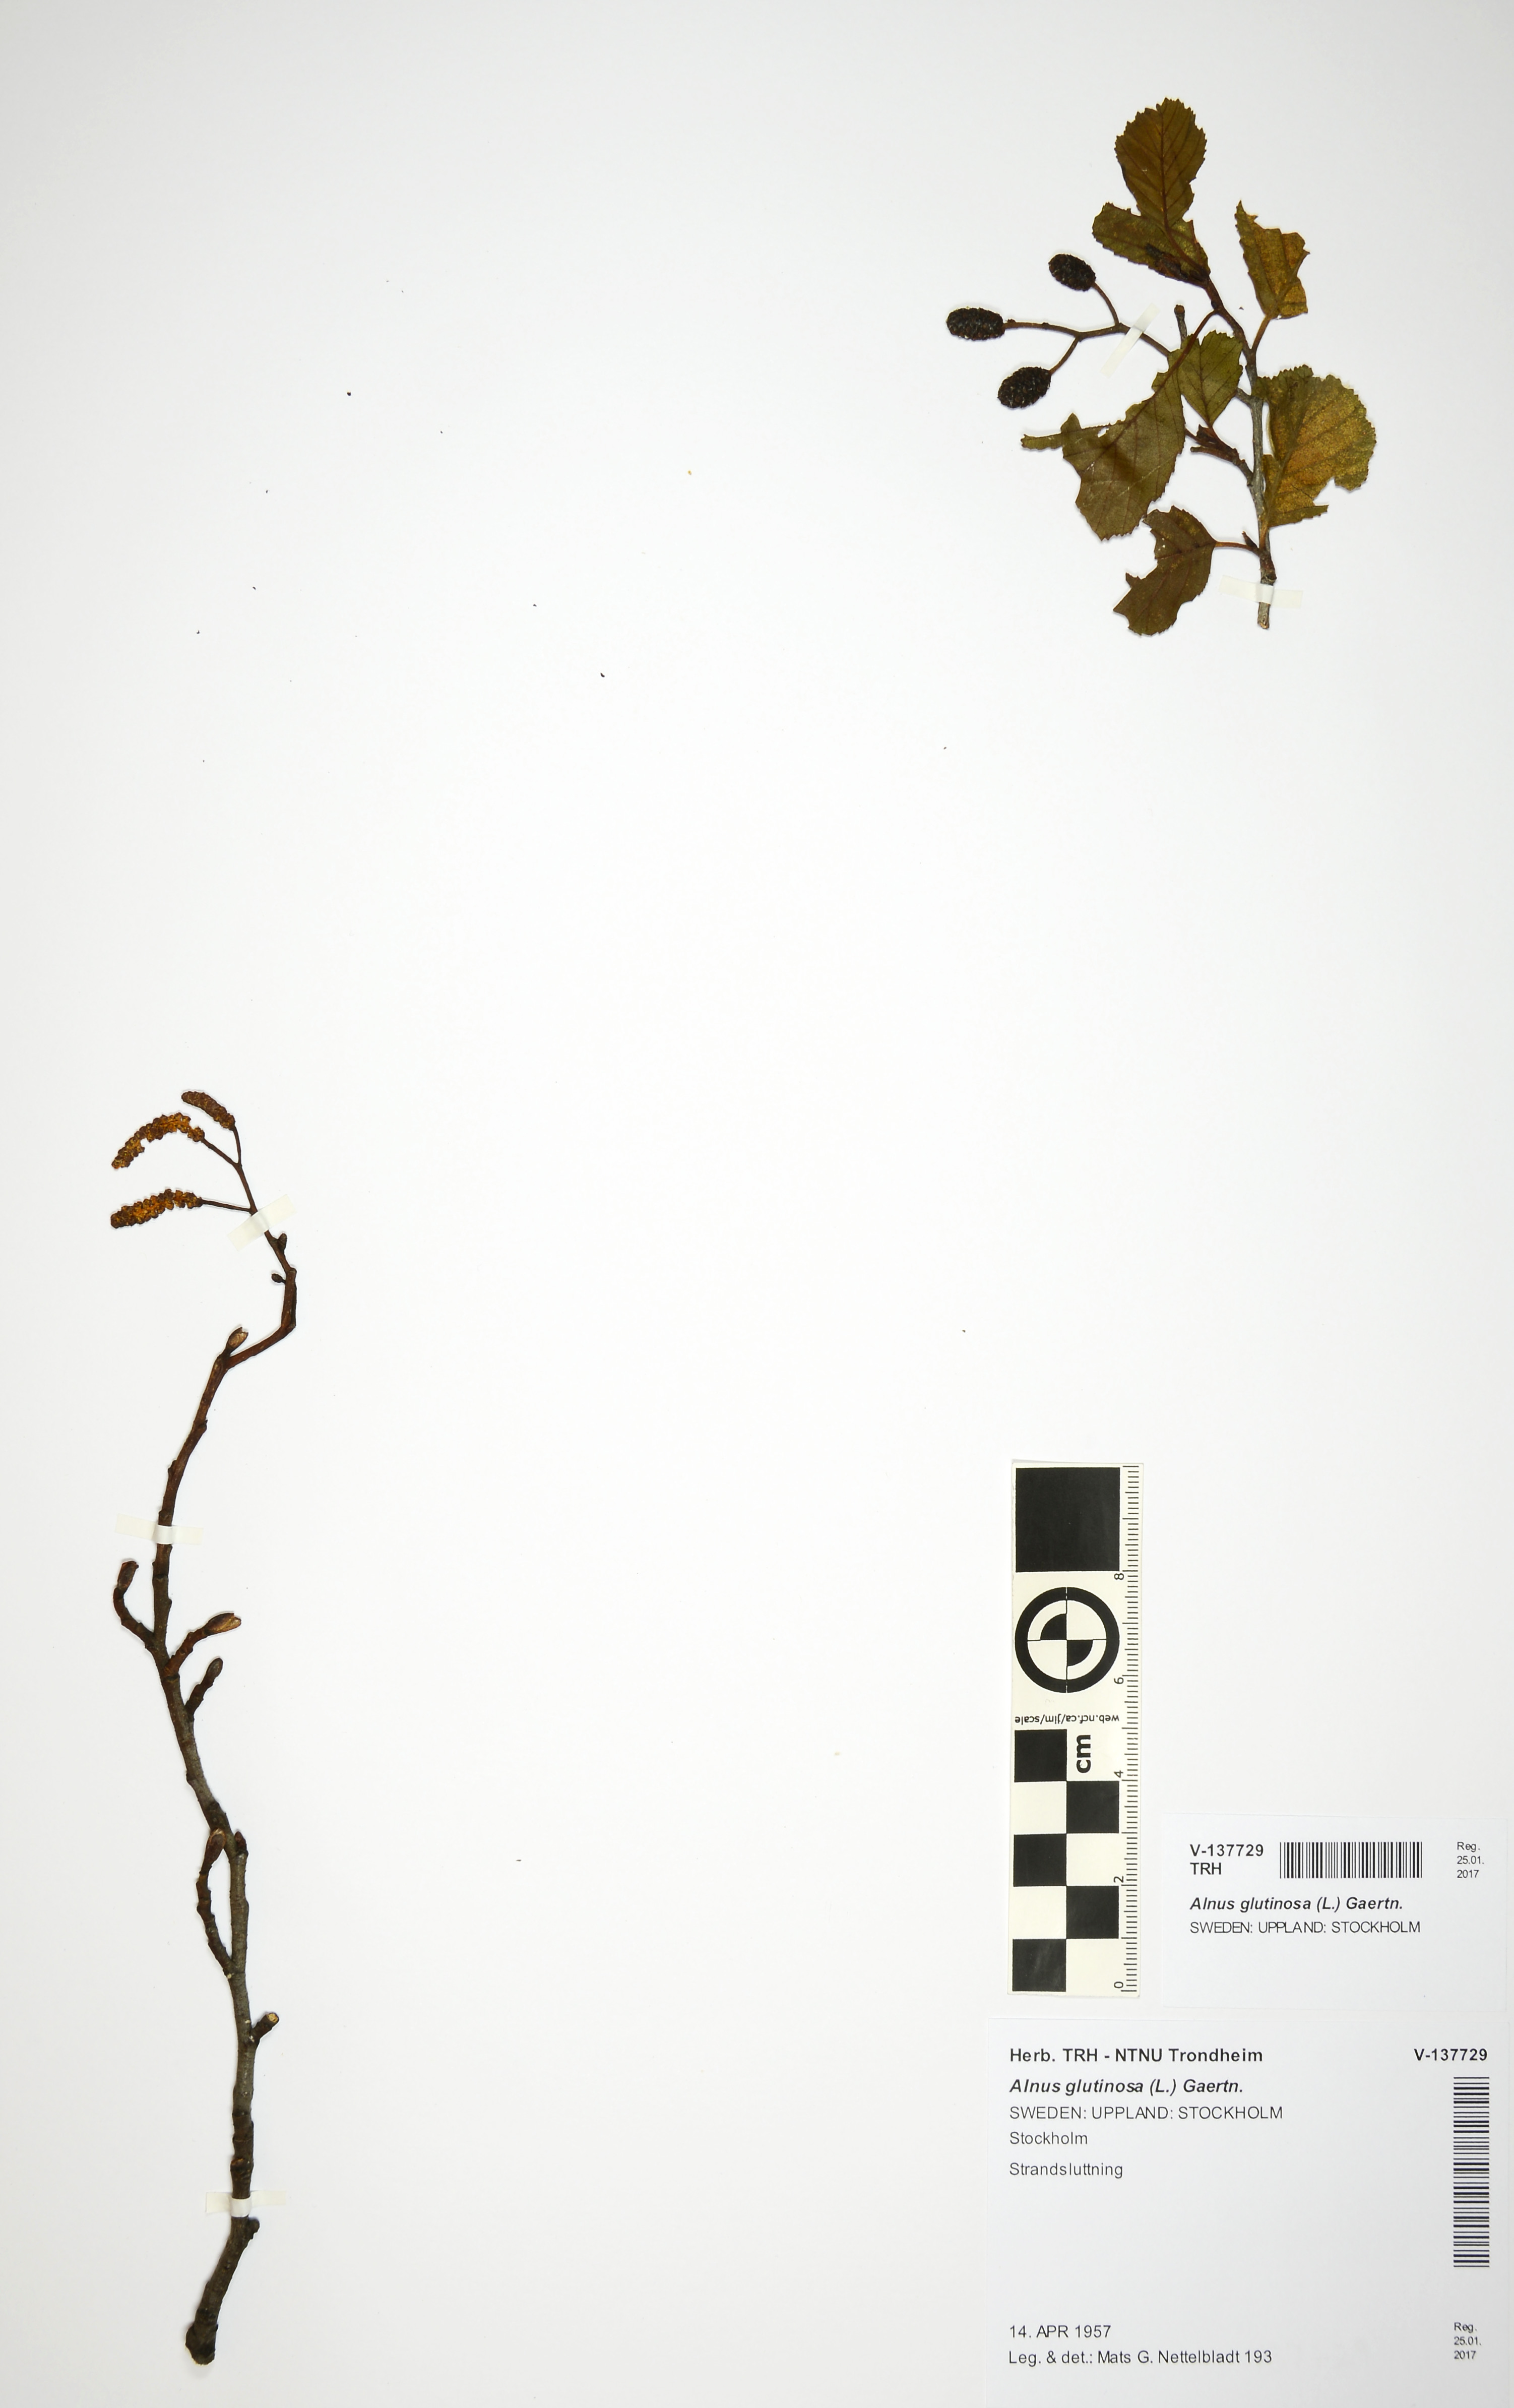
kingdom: Plantae
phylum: Tracheophyta
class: Magnoliopsida
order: Fagales
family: Betulaceae
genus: Alnus
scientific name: Alnus glutinosa
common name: Black alder
